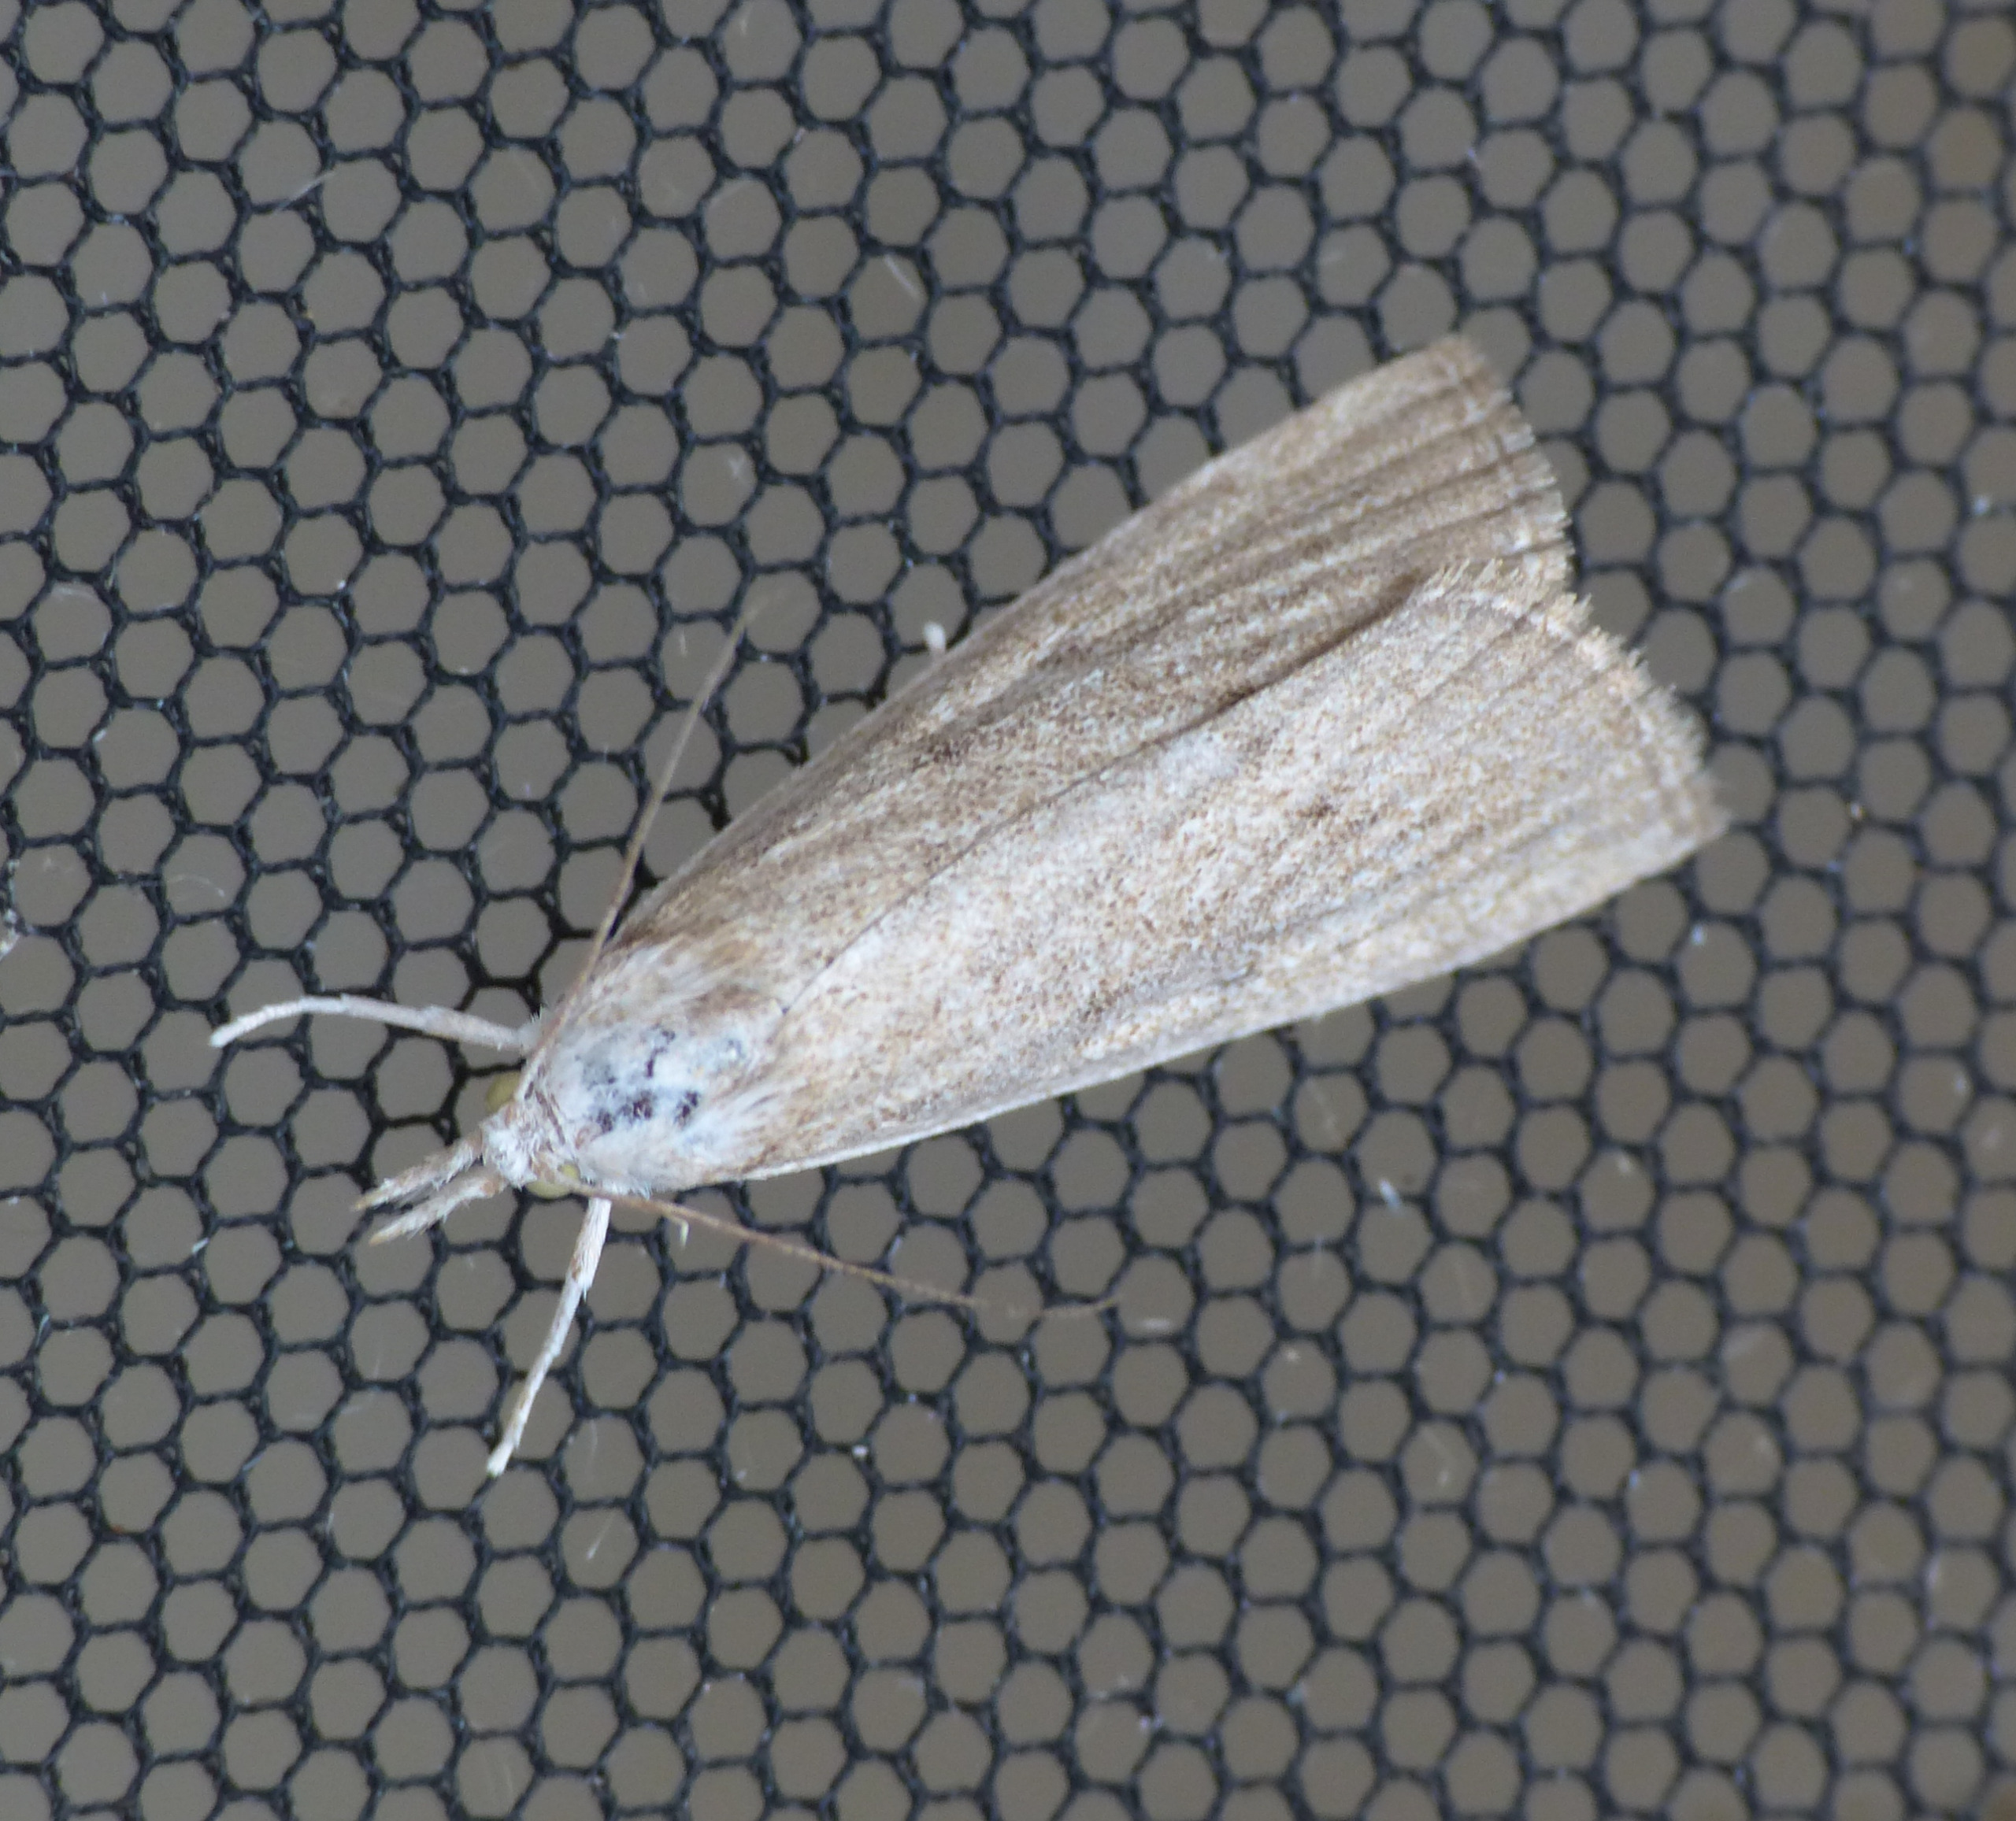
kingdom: Animalia
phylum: Arthropoda
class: Insecta
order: Lepidoptera
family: Crambidae
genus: Calamotropha
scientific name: Calamotropha paludella
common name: Dunhammerhalvmøl
